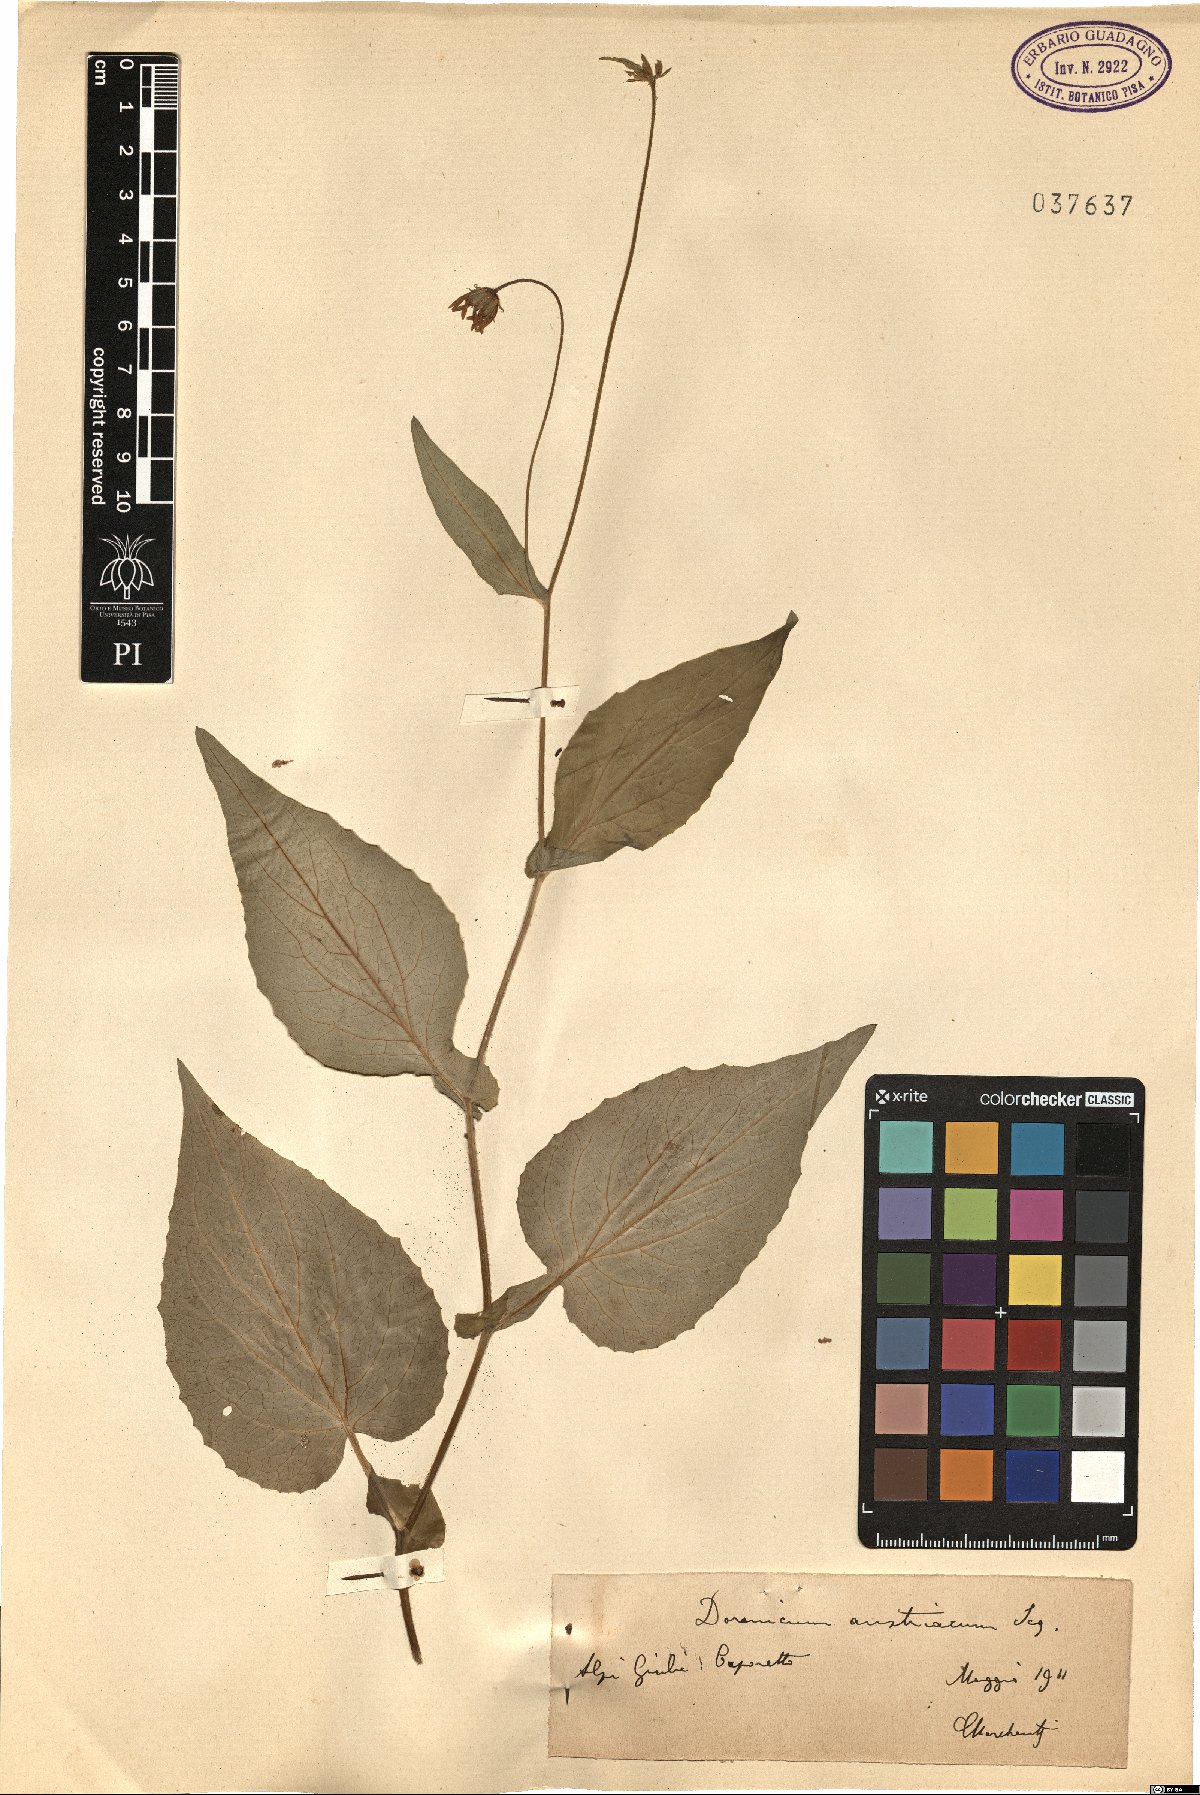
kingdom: Plantae
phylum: Tracheophyta
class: Magnoliopsida
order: Asterales
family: Asteraceae
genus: Doronicum
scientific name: Doronicum austriacum
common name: Austrian leopard's-bane
